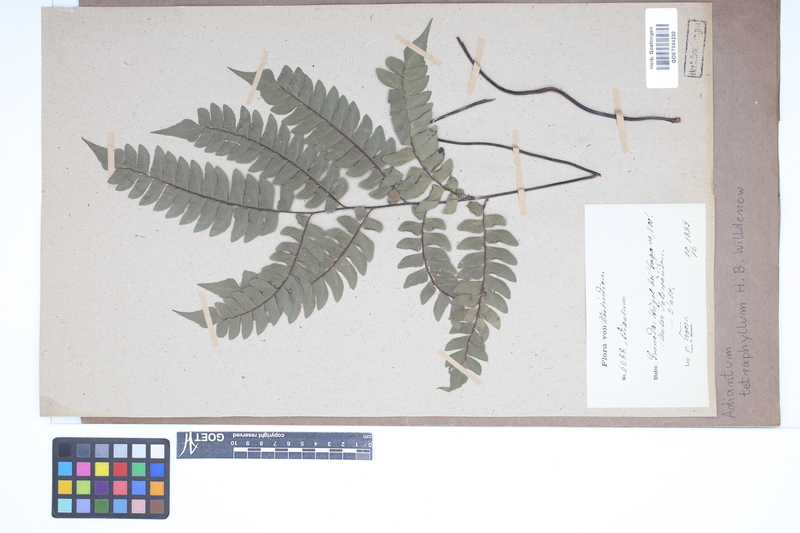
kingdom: Plantae
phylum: Tracheophyta
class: Polypodiopsida
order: Polypodiales
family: Pteridaceae
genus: Adiantum
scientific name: Adiantum tetraphyllum
